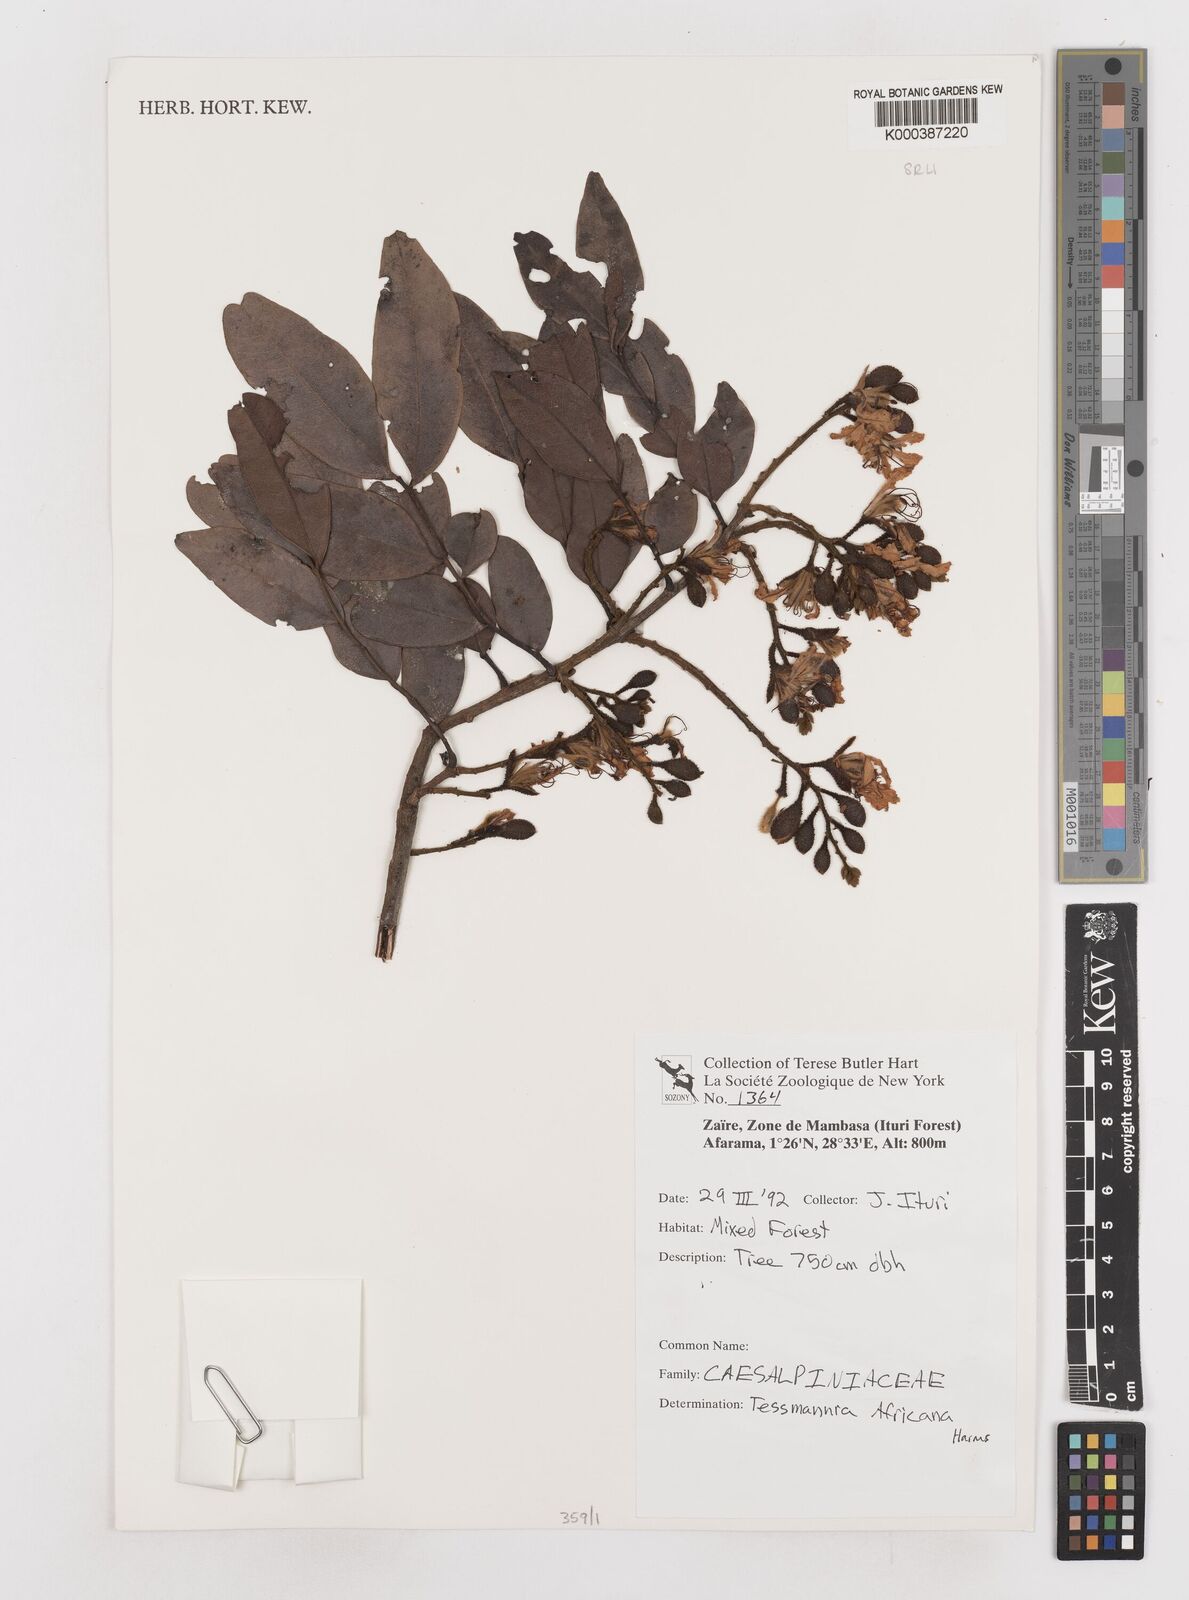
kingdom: Plantae
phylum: Tracheophyta
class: Magnoliopsida
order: Fabales
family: Fabaceae
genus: Tessmannia
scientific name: Tessmannia africana
